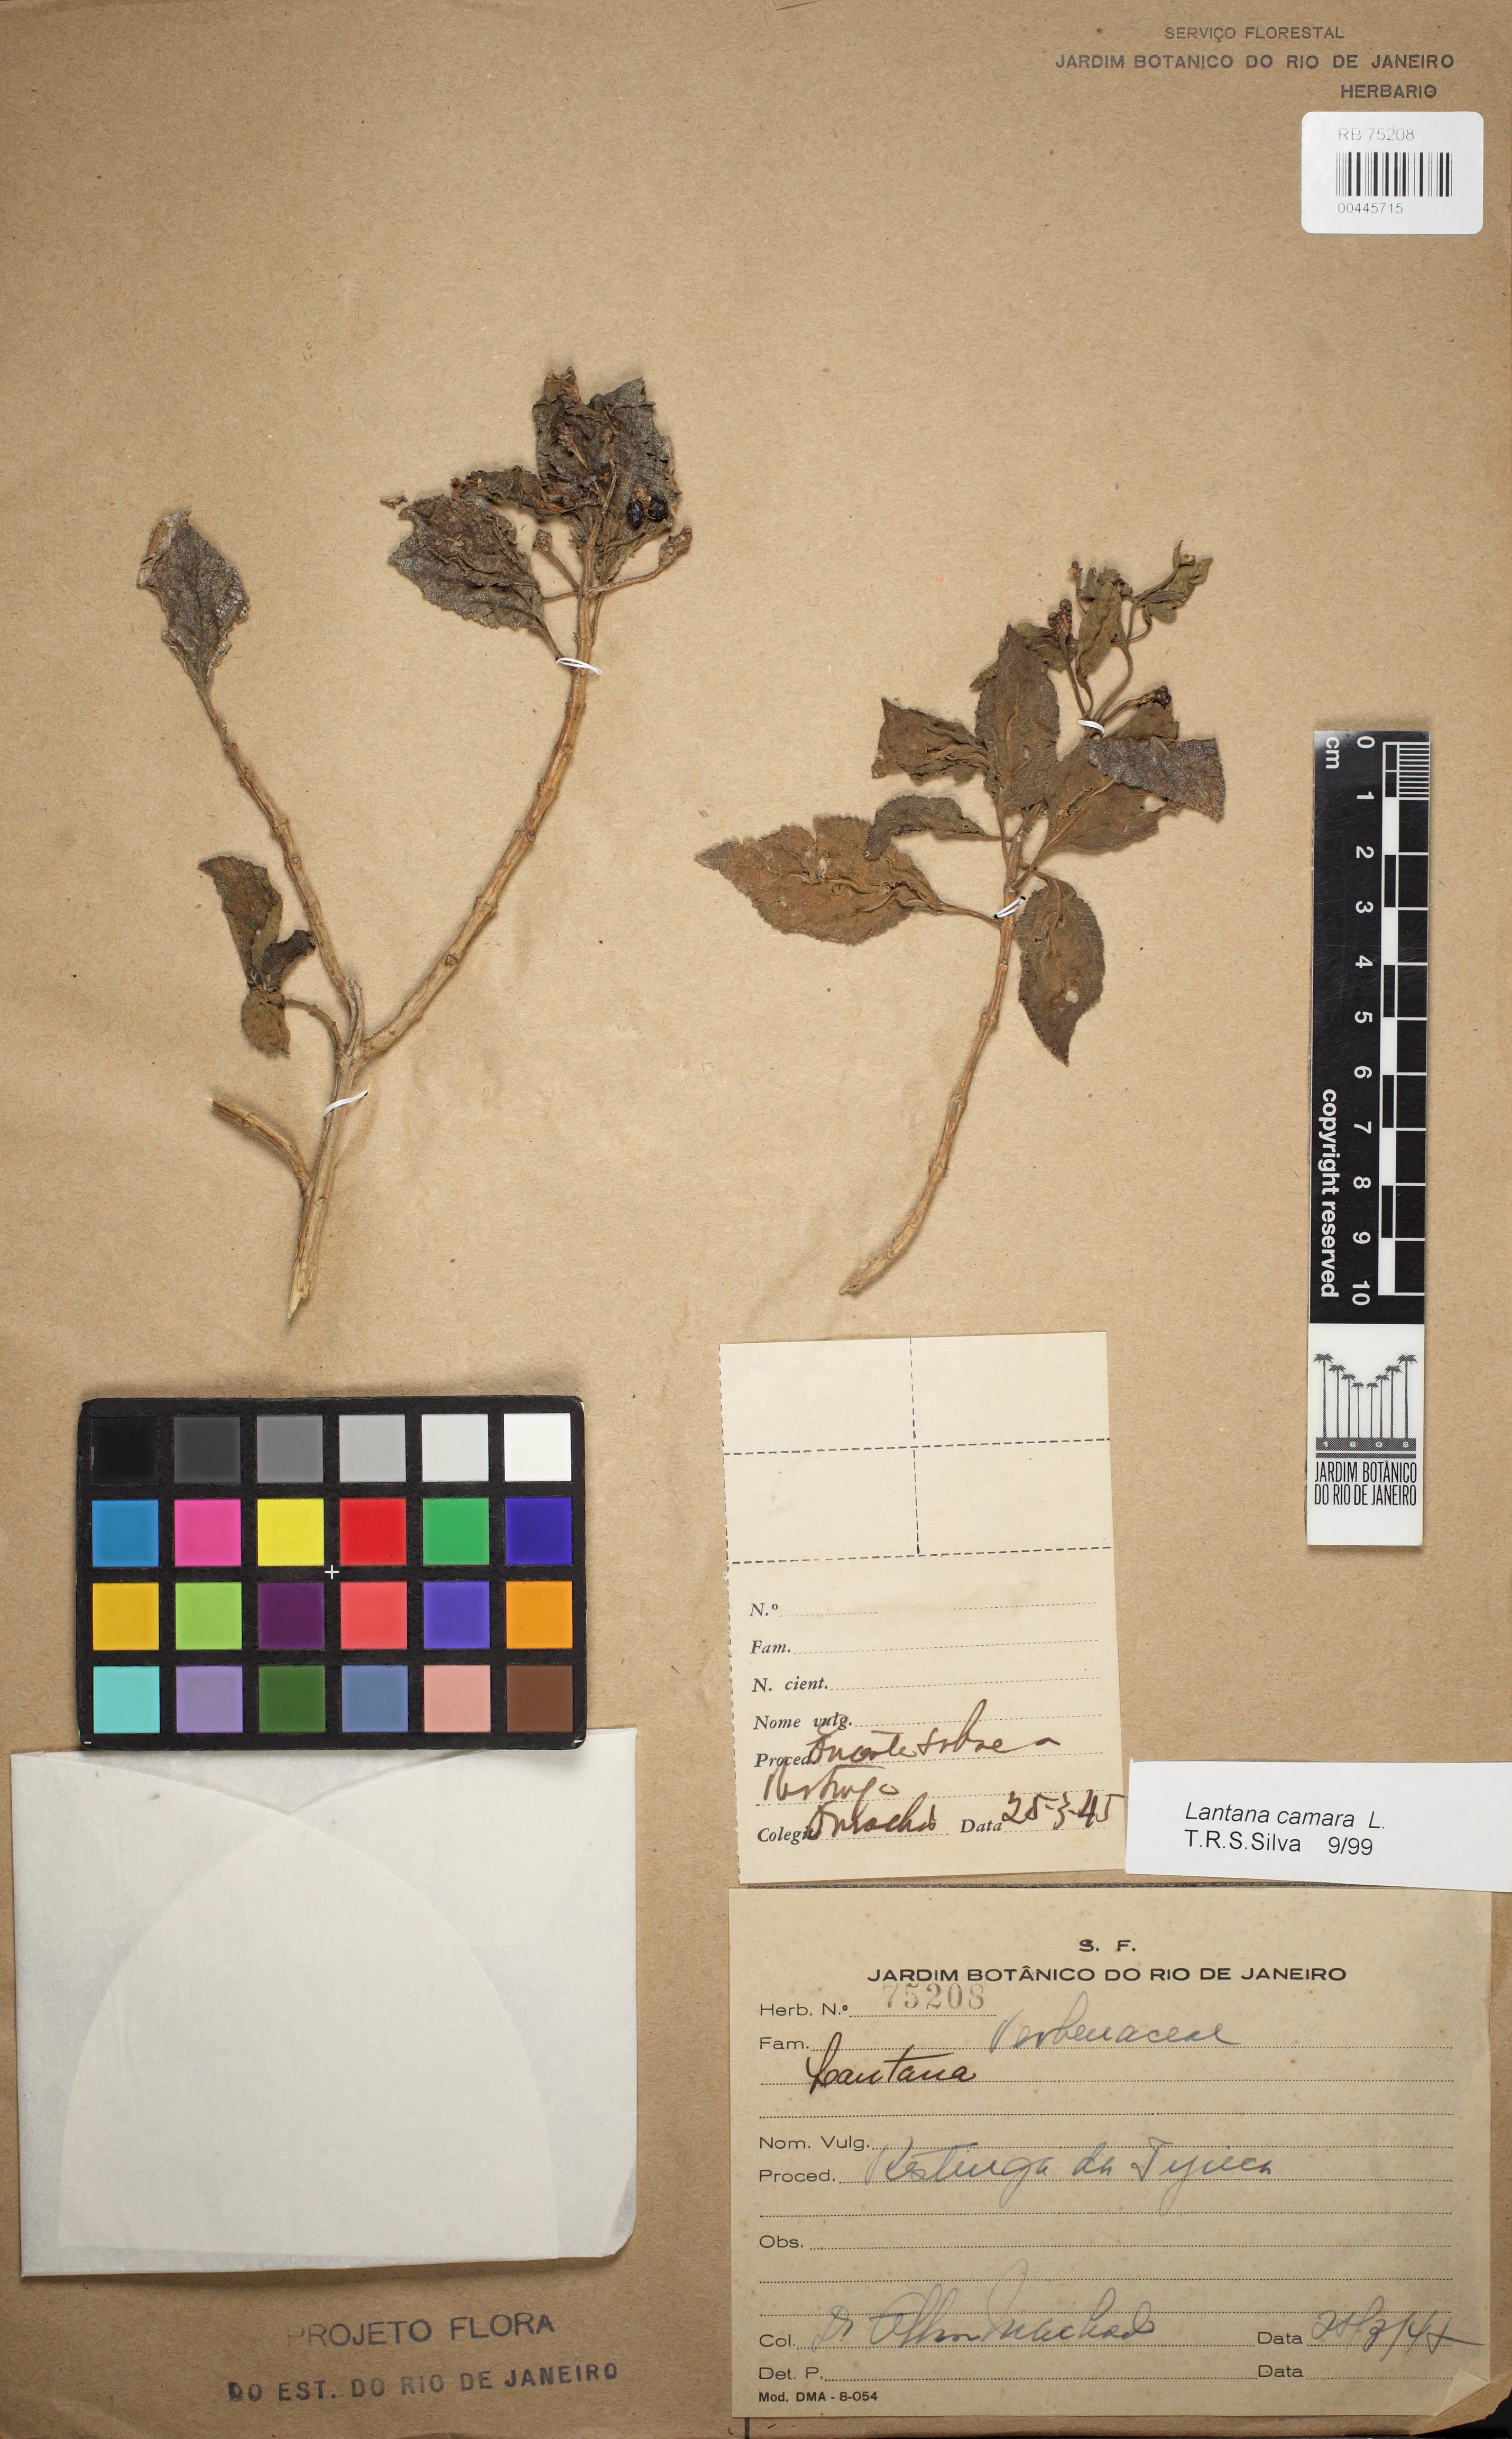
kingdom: Plantae
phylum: Tracheophyta
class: Magnoliopsida
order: Lamiales
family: Verbenaceae
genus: Lantana
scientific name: Lantana camara
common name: Lantana
